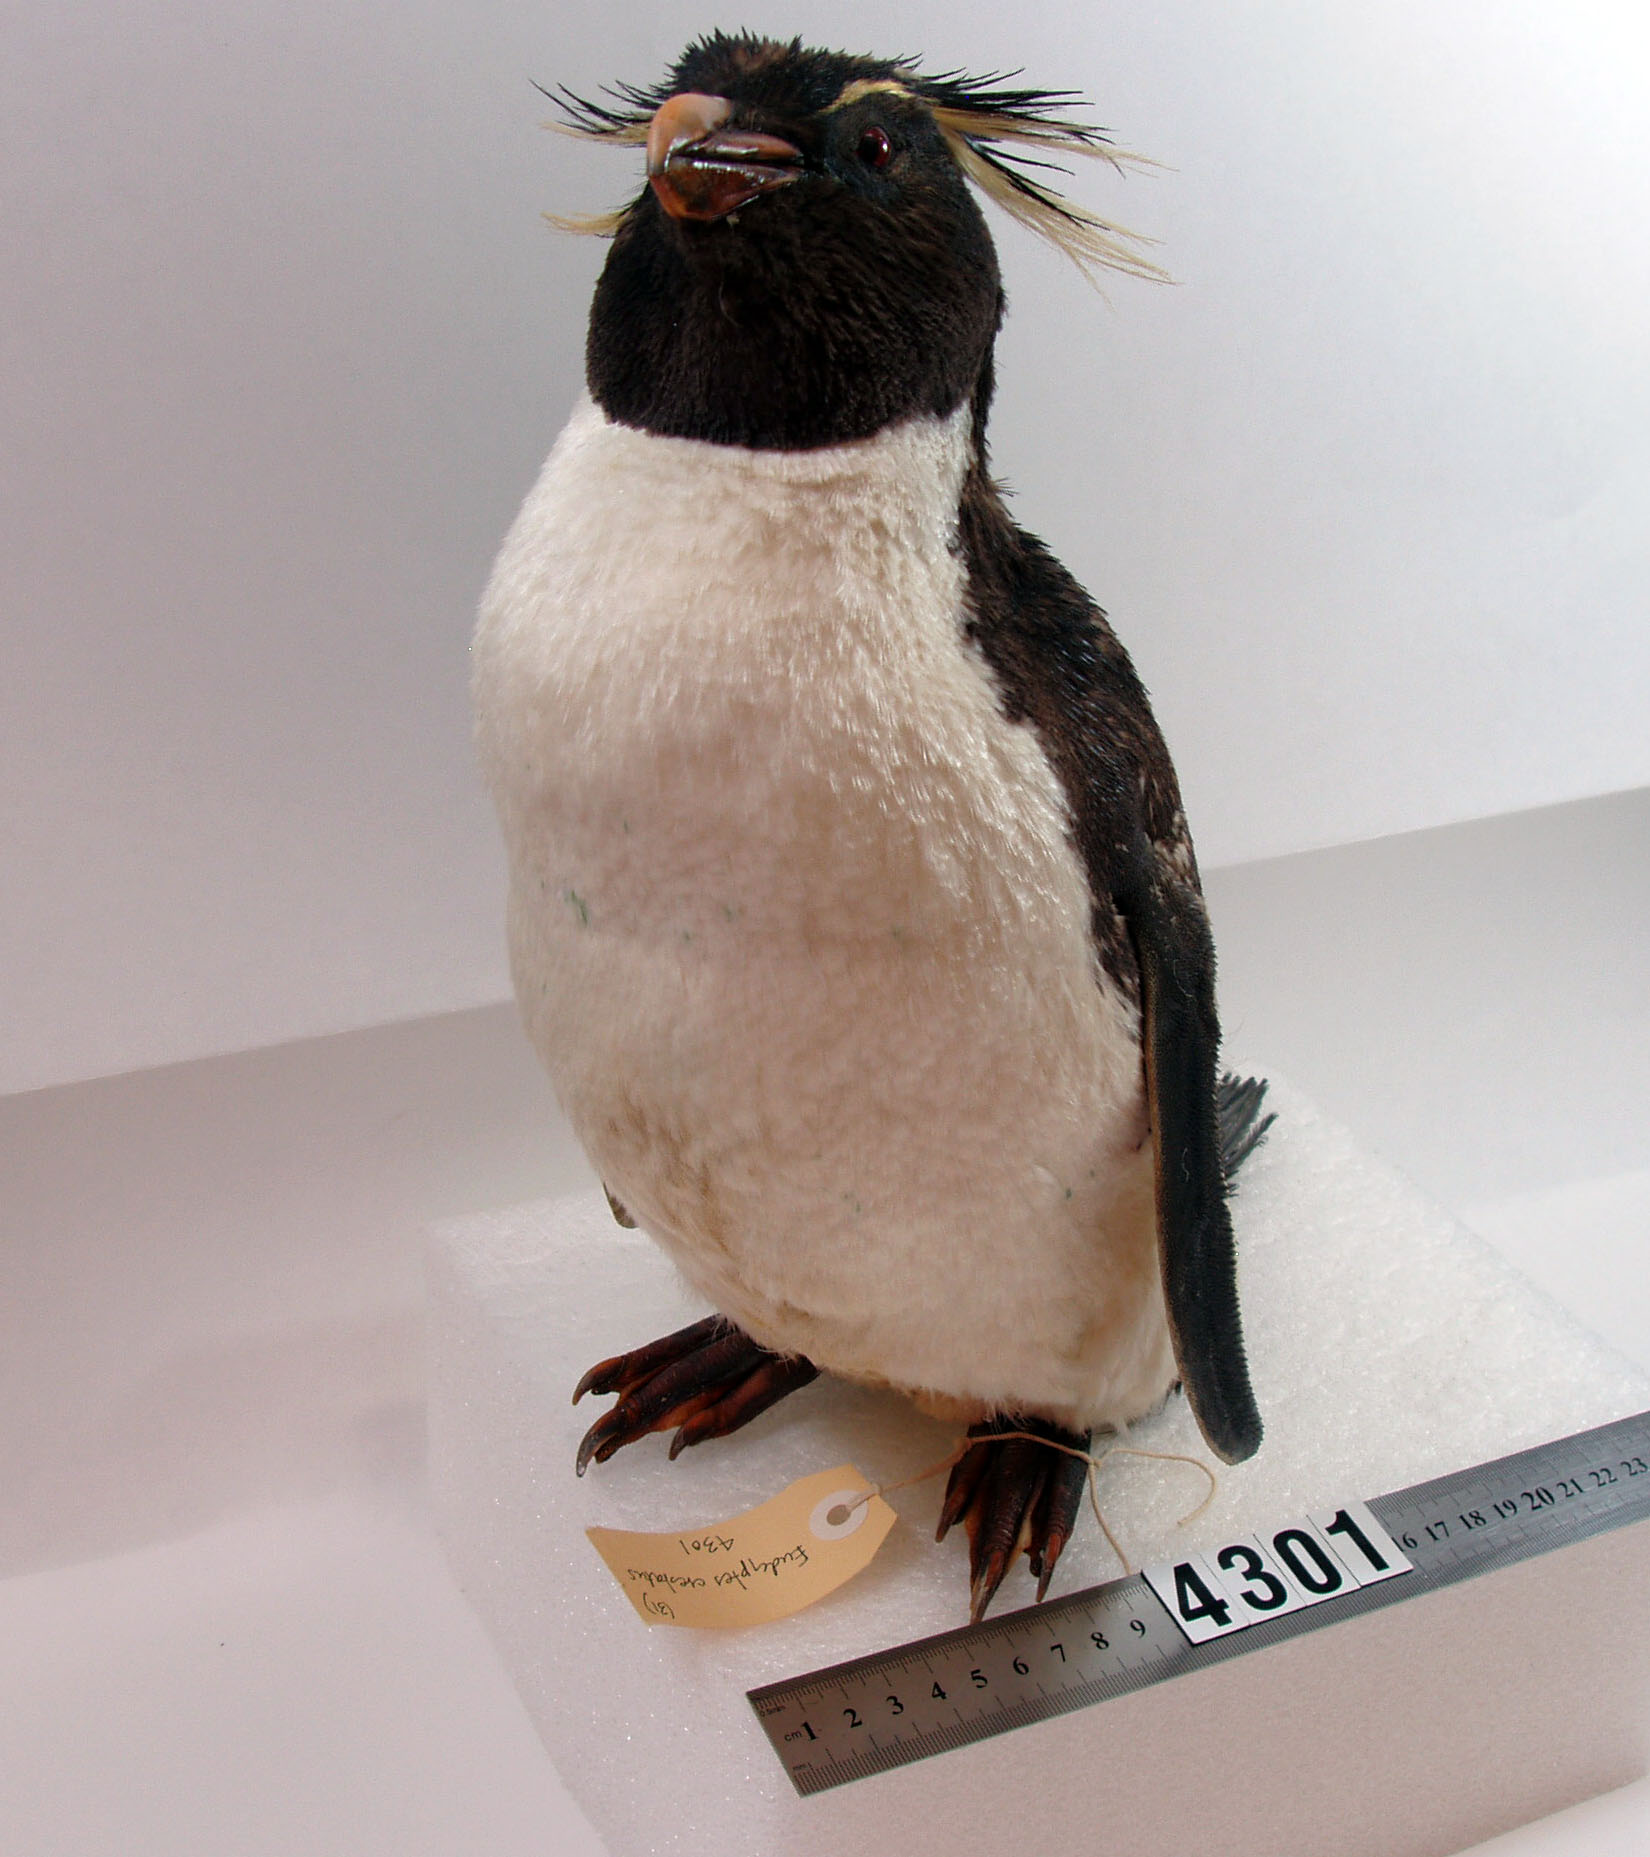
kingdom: Animalia
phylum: Chordata
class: Aves
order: Sphenisciformes
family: Spheniscidae
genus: Eudyptes
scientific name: Eudyptes chrysocome
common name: Southern rockhopper penguin
